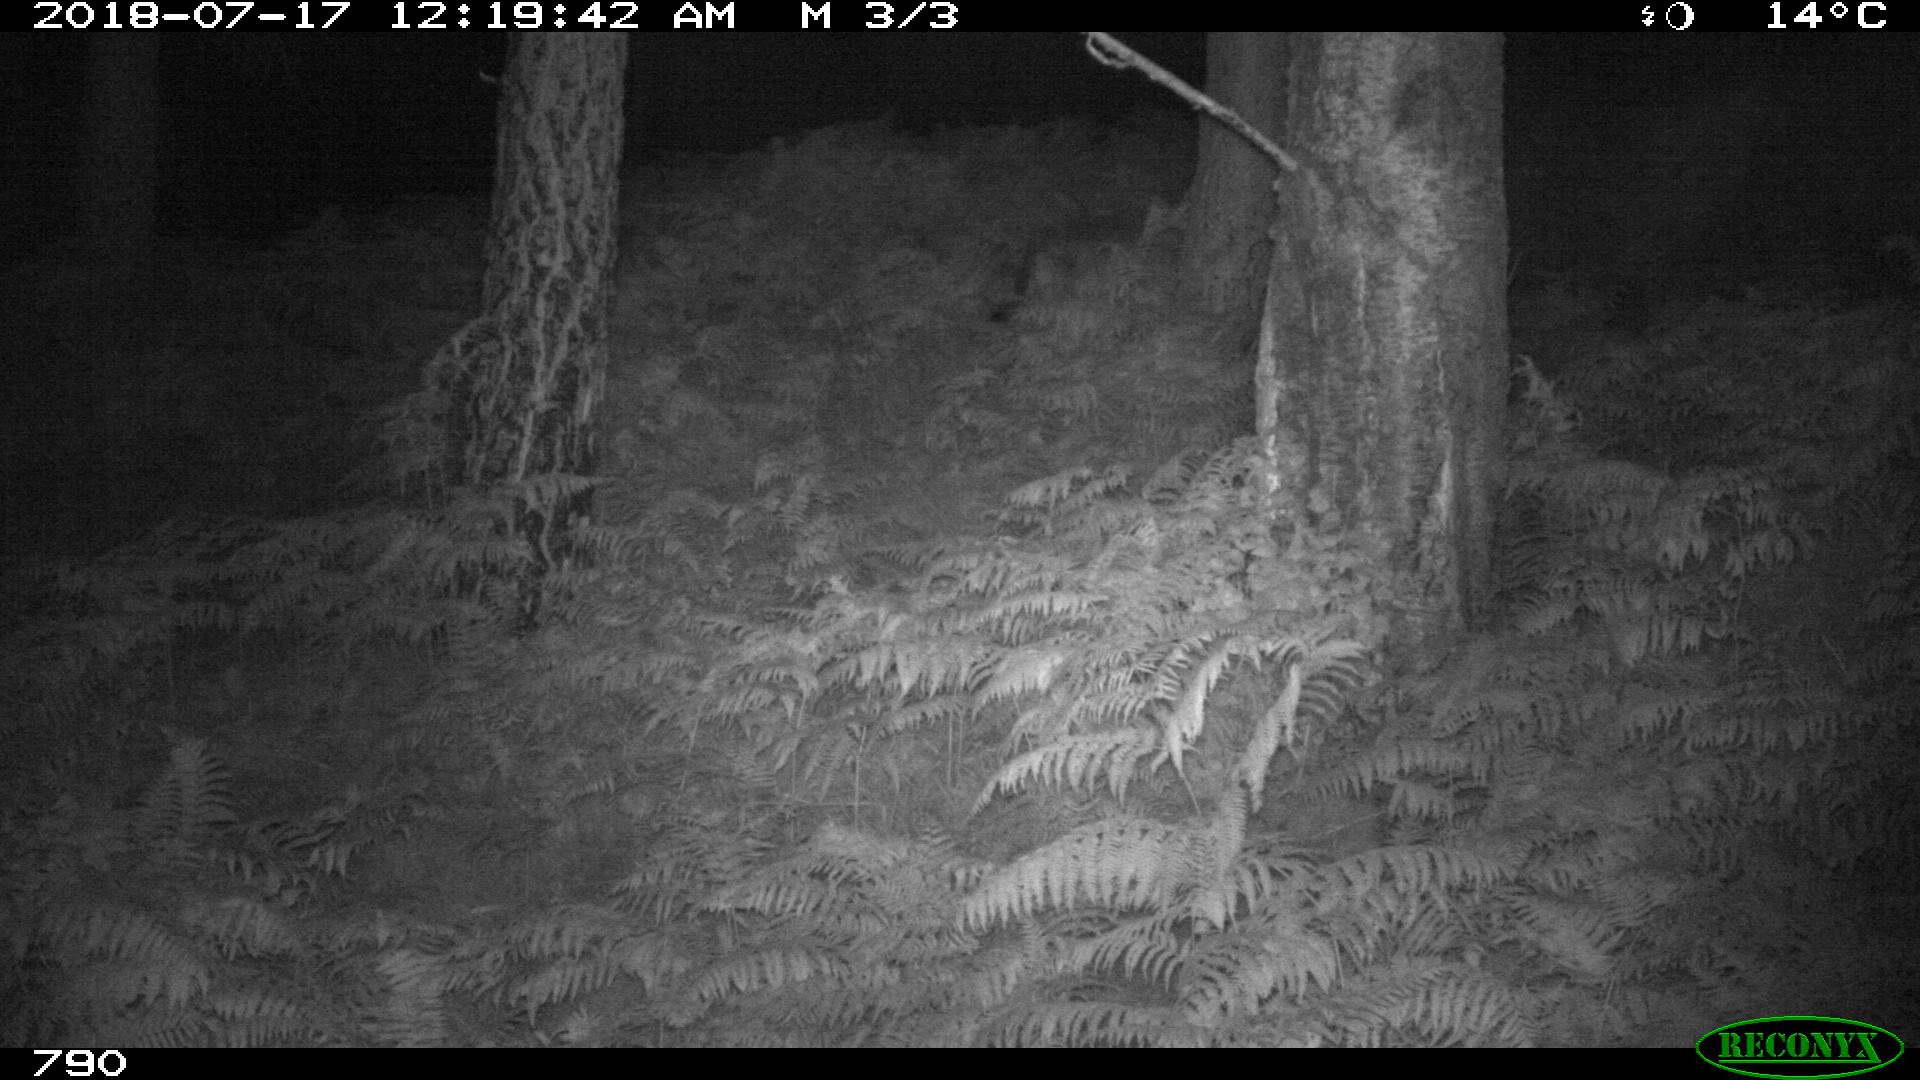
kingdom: Animalia
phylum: Chordata
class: Mammalia
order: Carnivora
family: Canidae
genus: Canis
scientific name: Canis lupus
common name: Gray wolf
